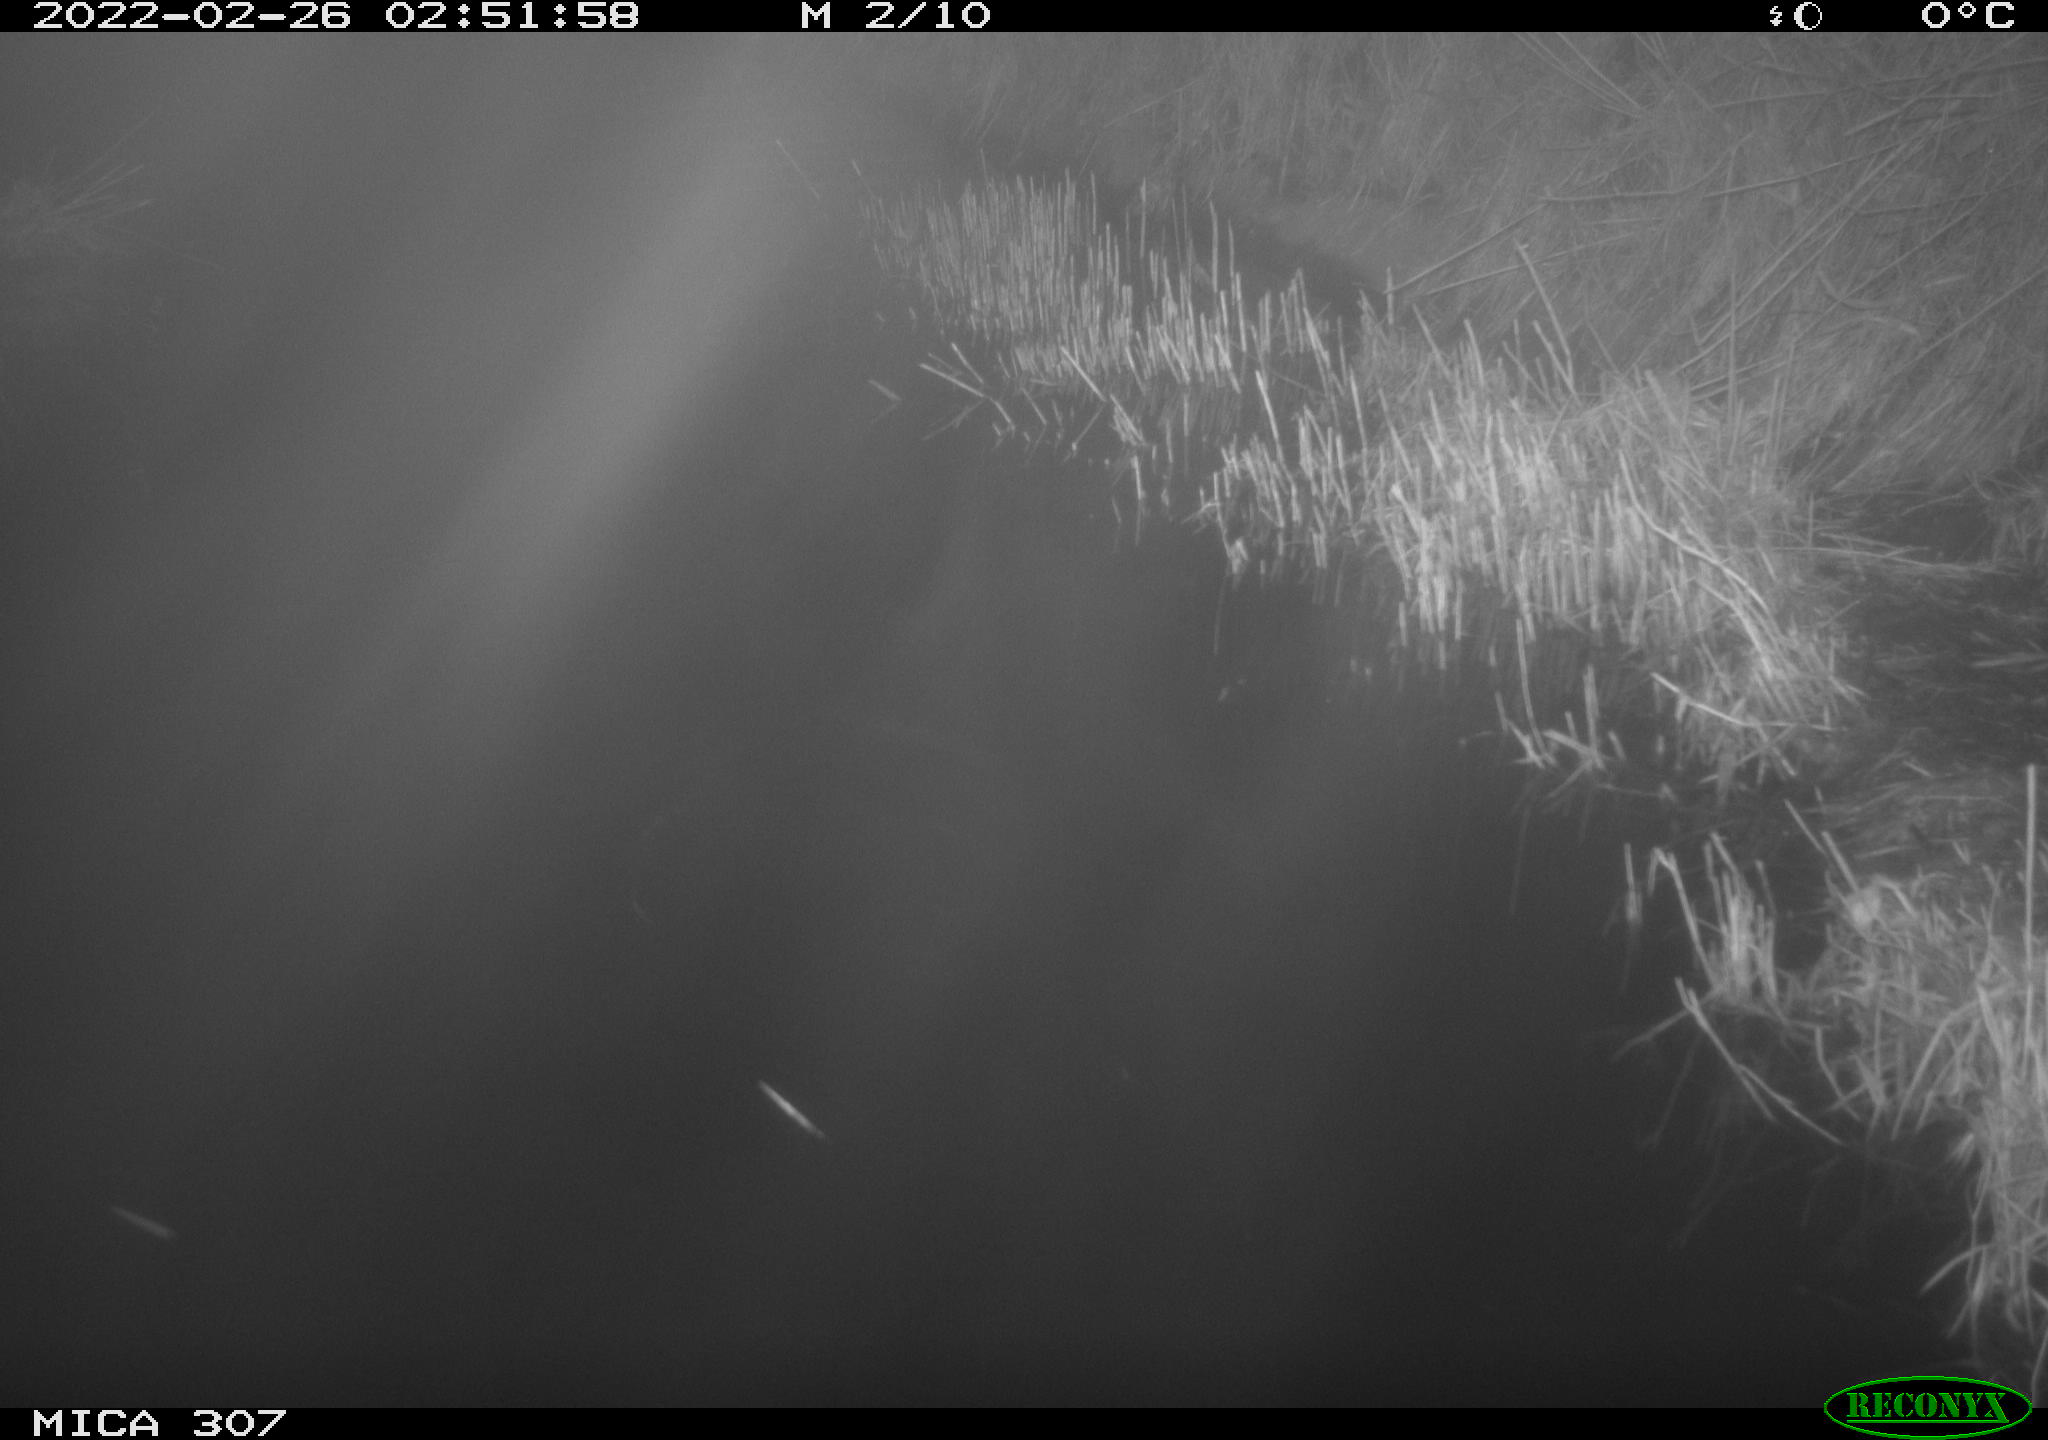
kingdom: Animalia
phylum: Chordata
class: Mammalia
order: Rodentia
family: Cricetidae
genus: Ondatra
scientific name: Ondatra zibethicus
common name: Muskrat
